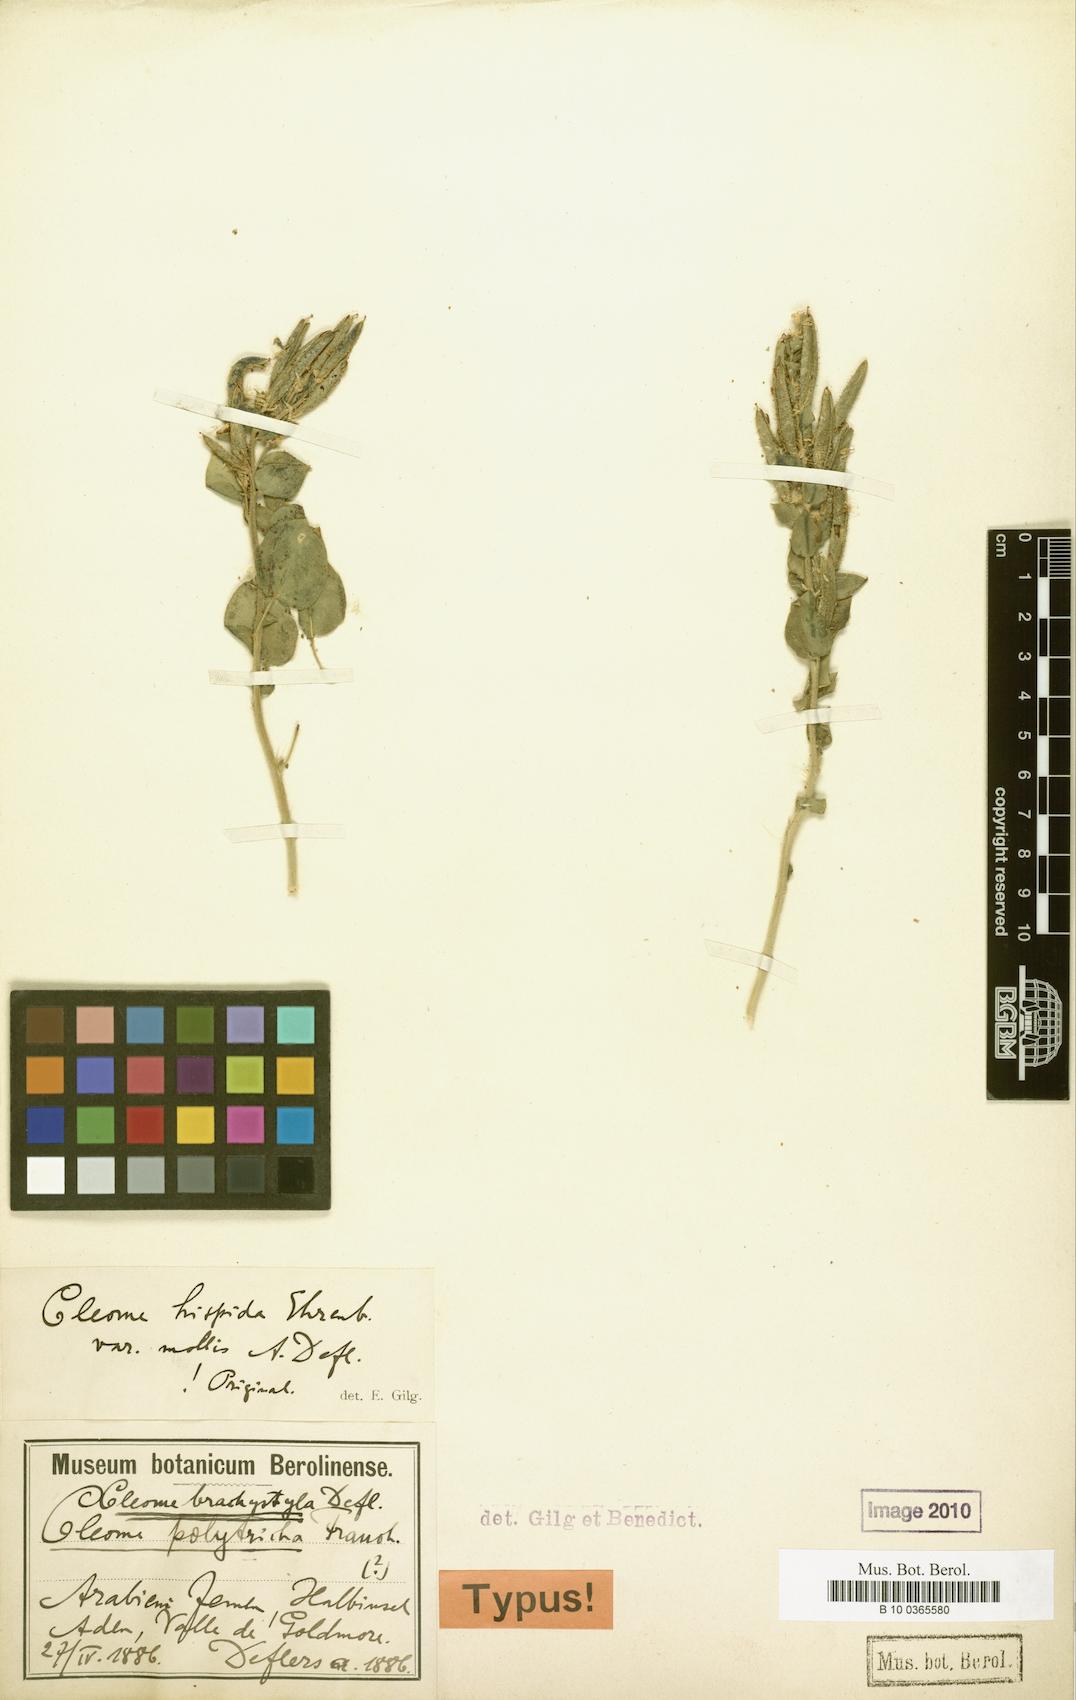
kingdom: Plantae
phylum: Tracheophyta
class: Magnoliopsida
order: Brassicales
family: Cleomaceae
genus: Rorida
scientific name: Rorida
